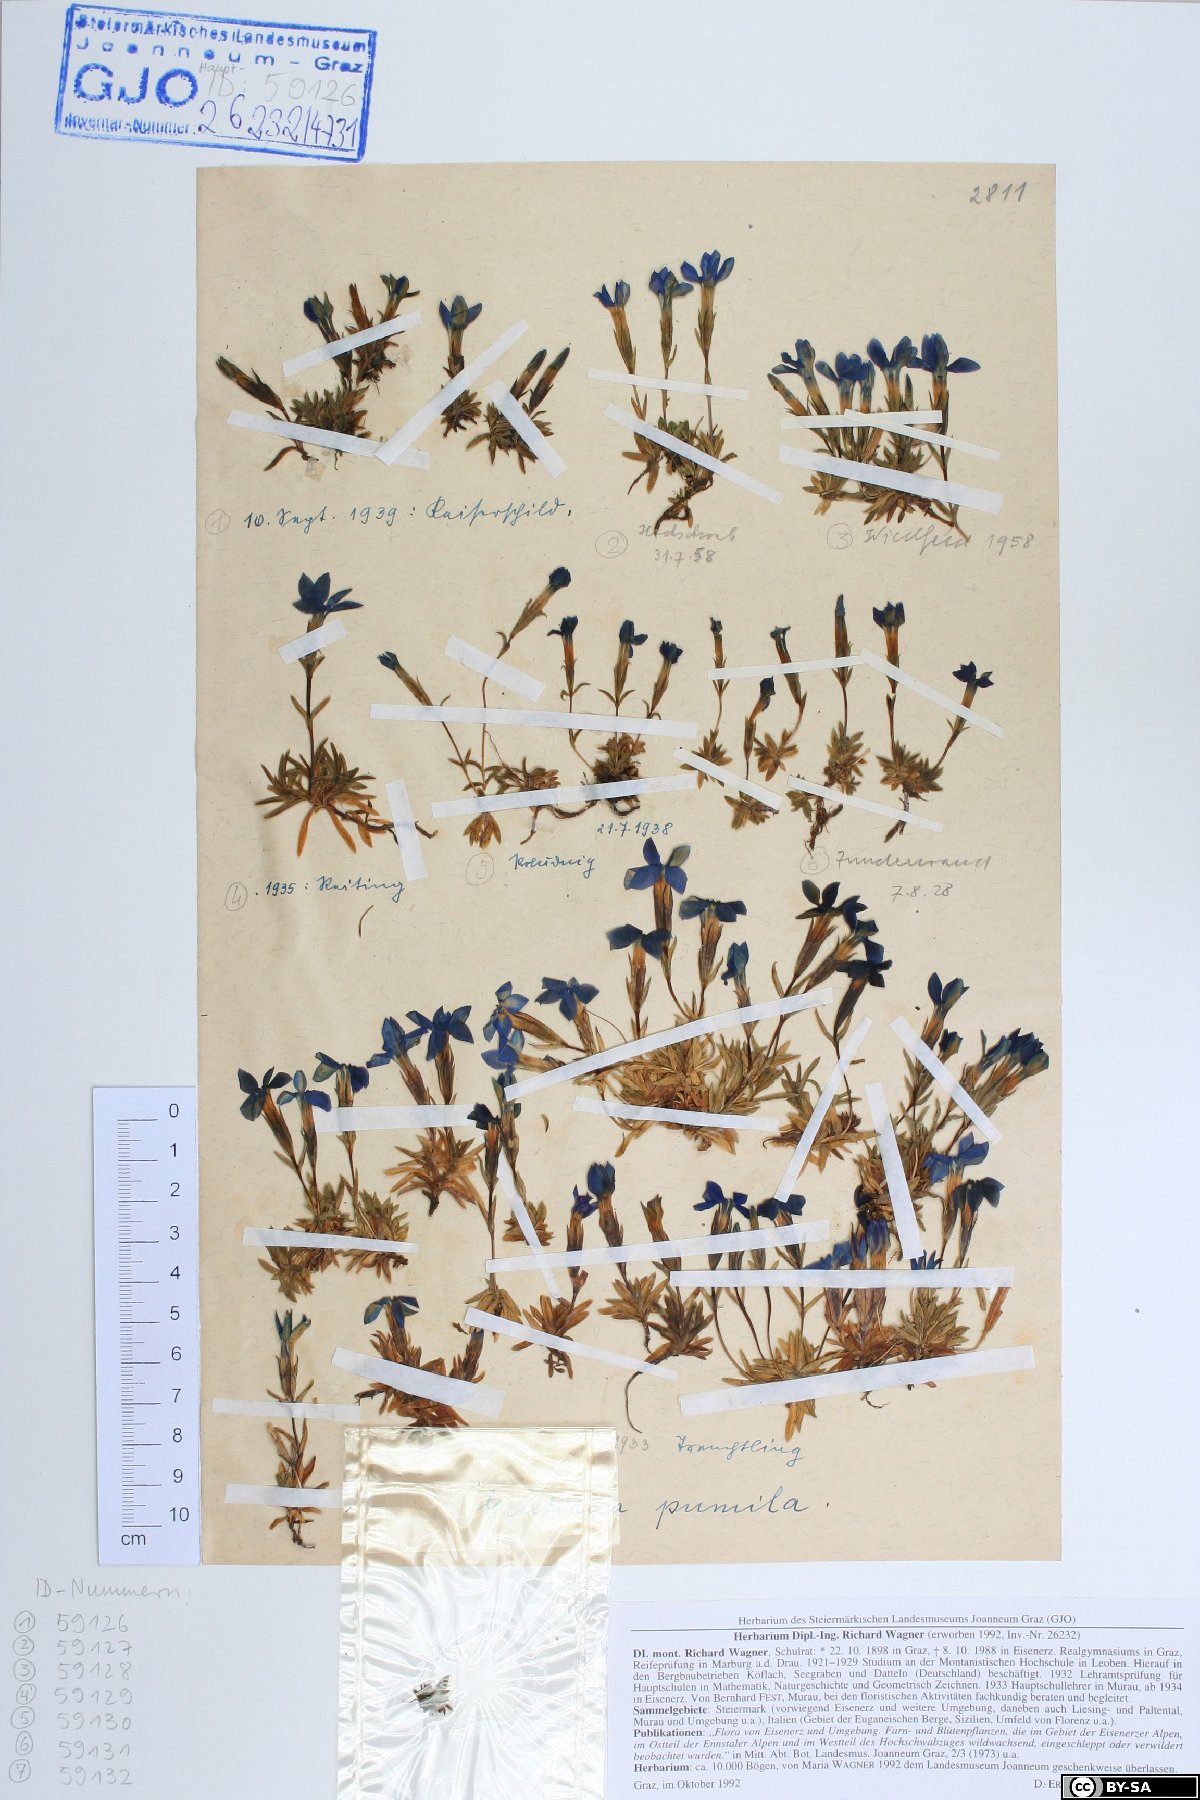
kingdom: Plantae
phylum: Tracheophyta
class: Magnoliopsida
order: Gentianales
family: Gentianaceae
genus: Gentiana
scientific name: Gentiana pumila
